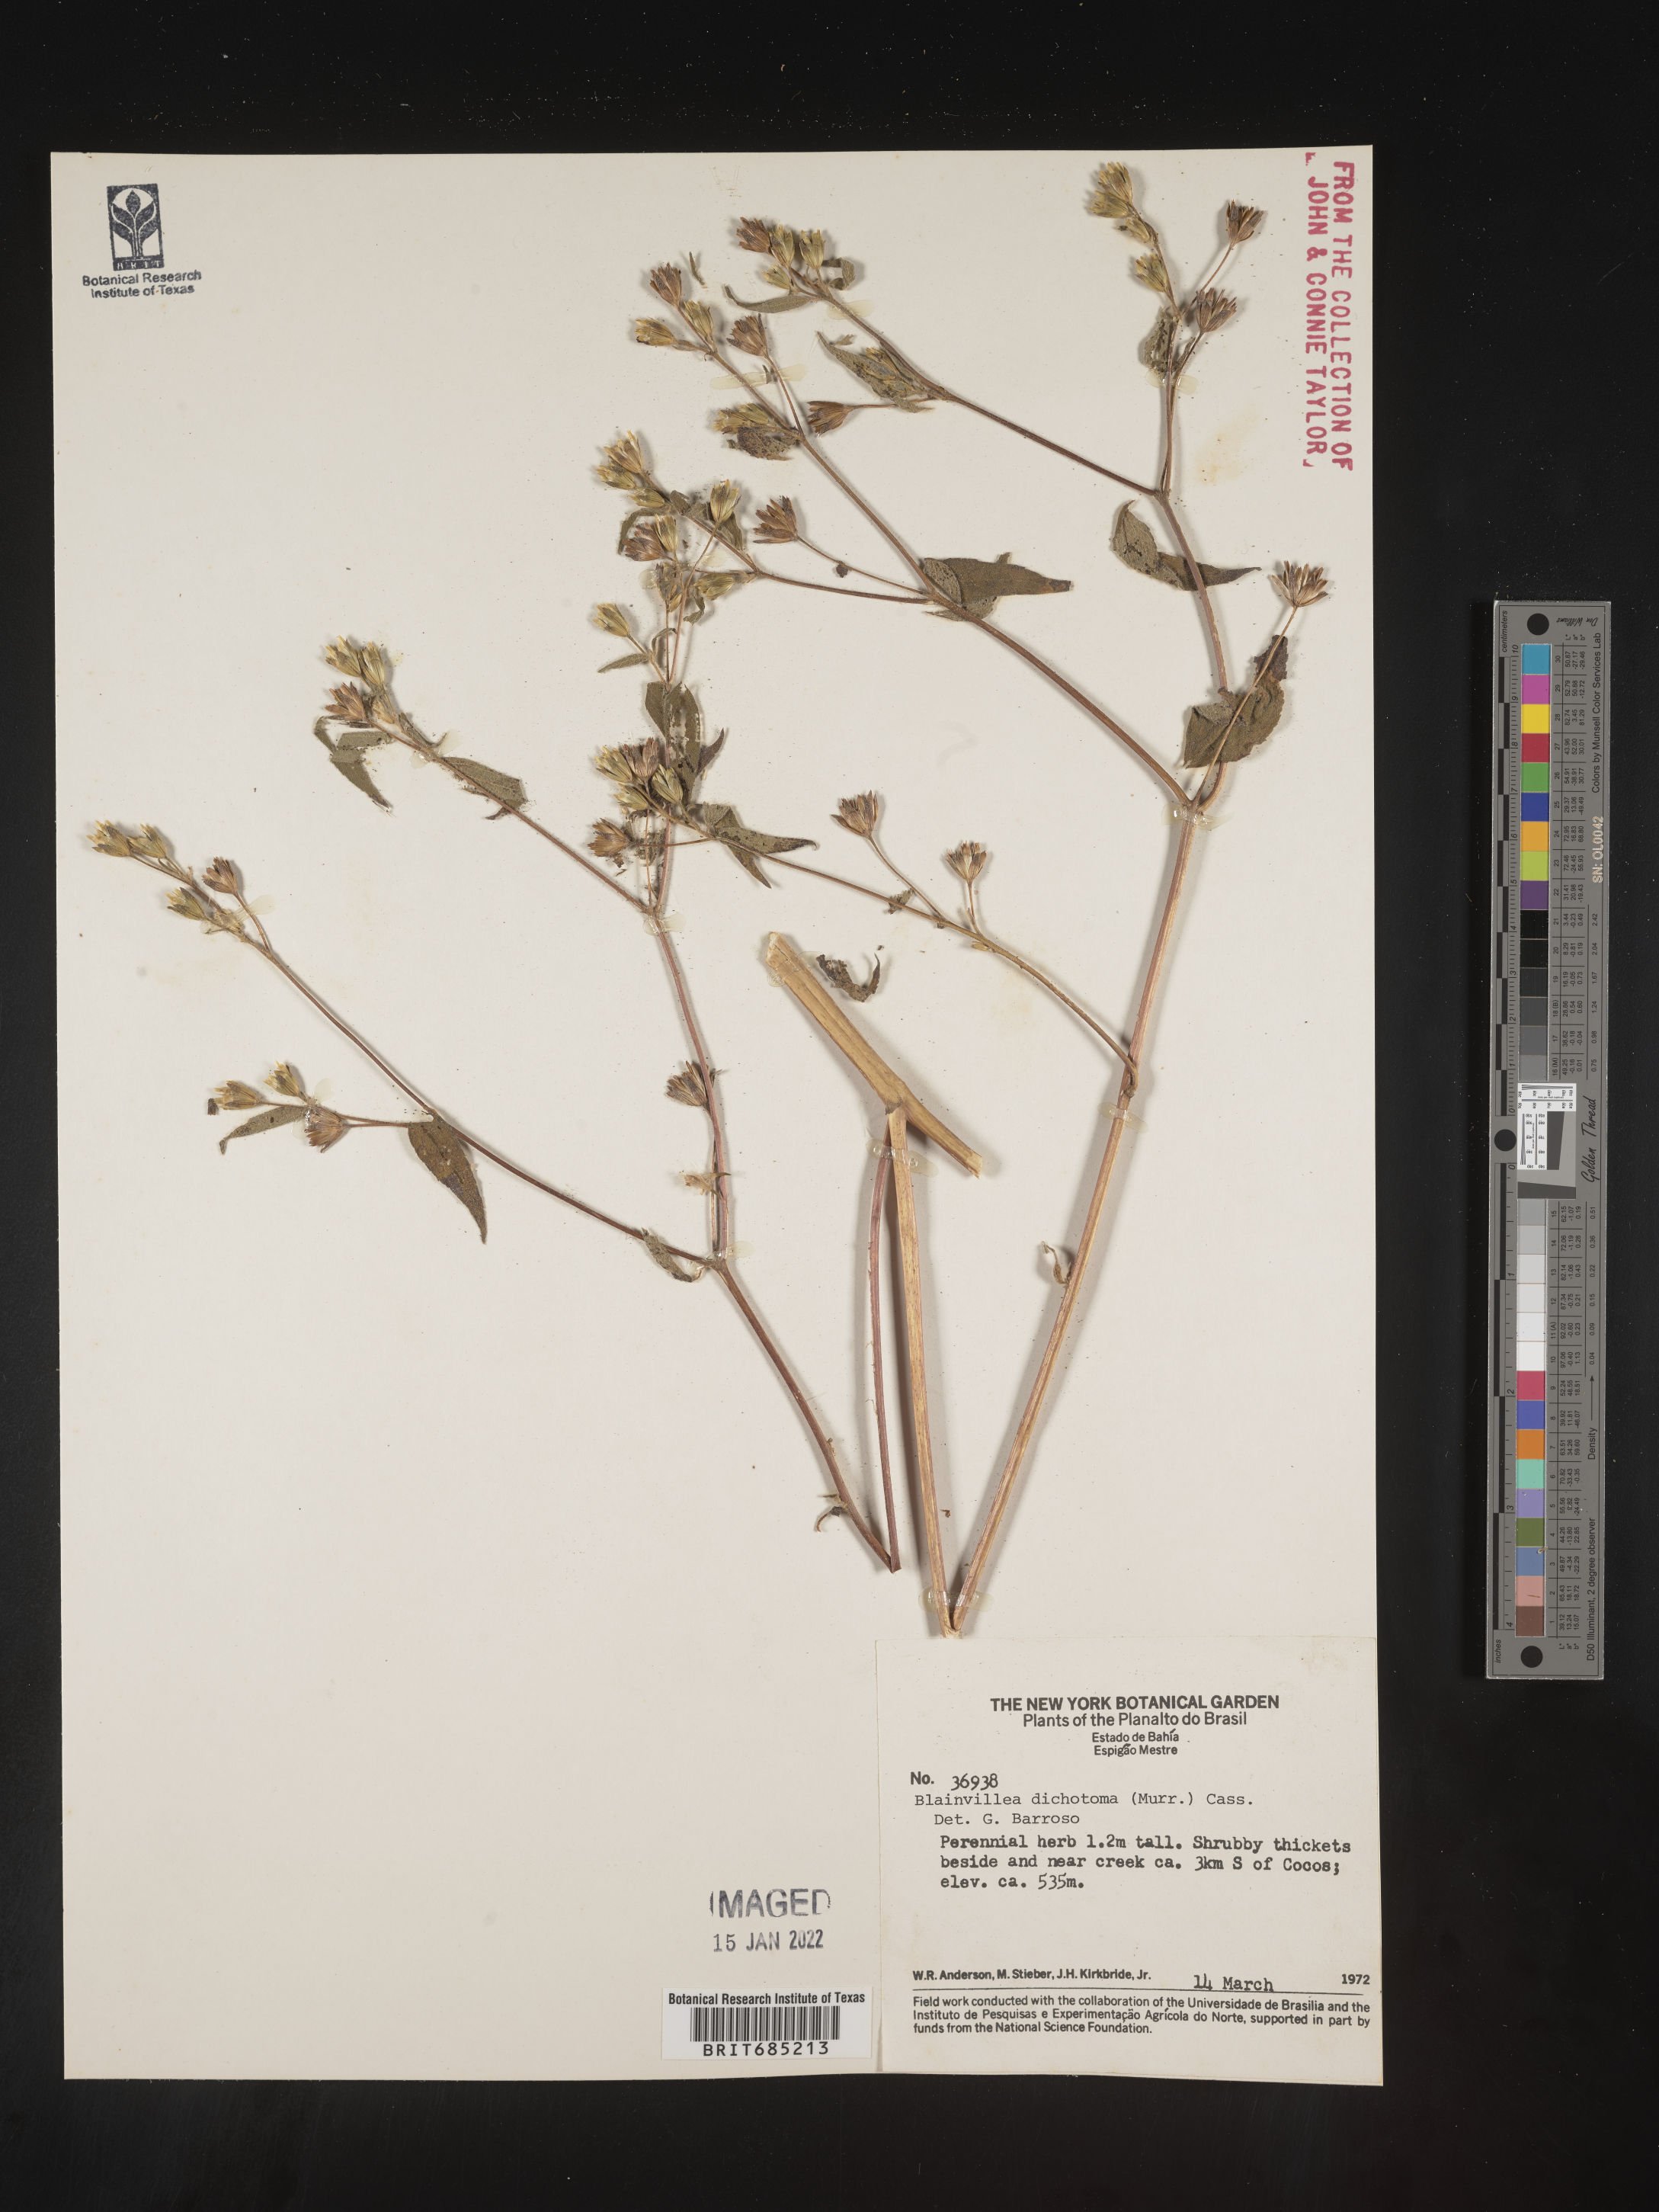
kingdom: Plantae
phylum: Tracheophyta
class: Magnoliopsida
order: Asterales
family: Asteraceae
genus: Blainvillea
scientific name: Blainvillea dichotoma
